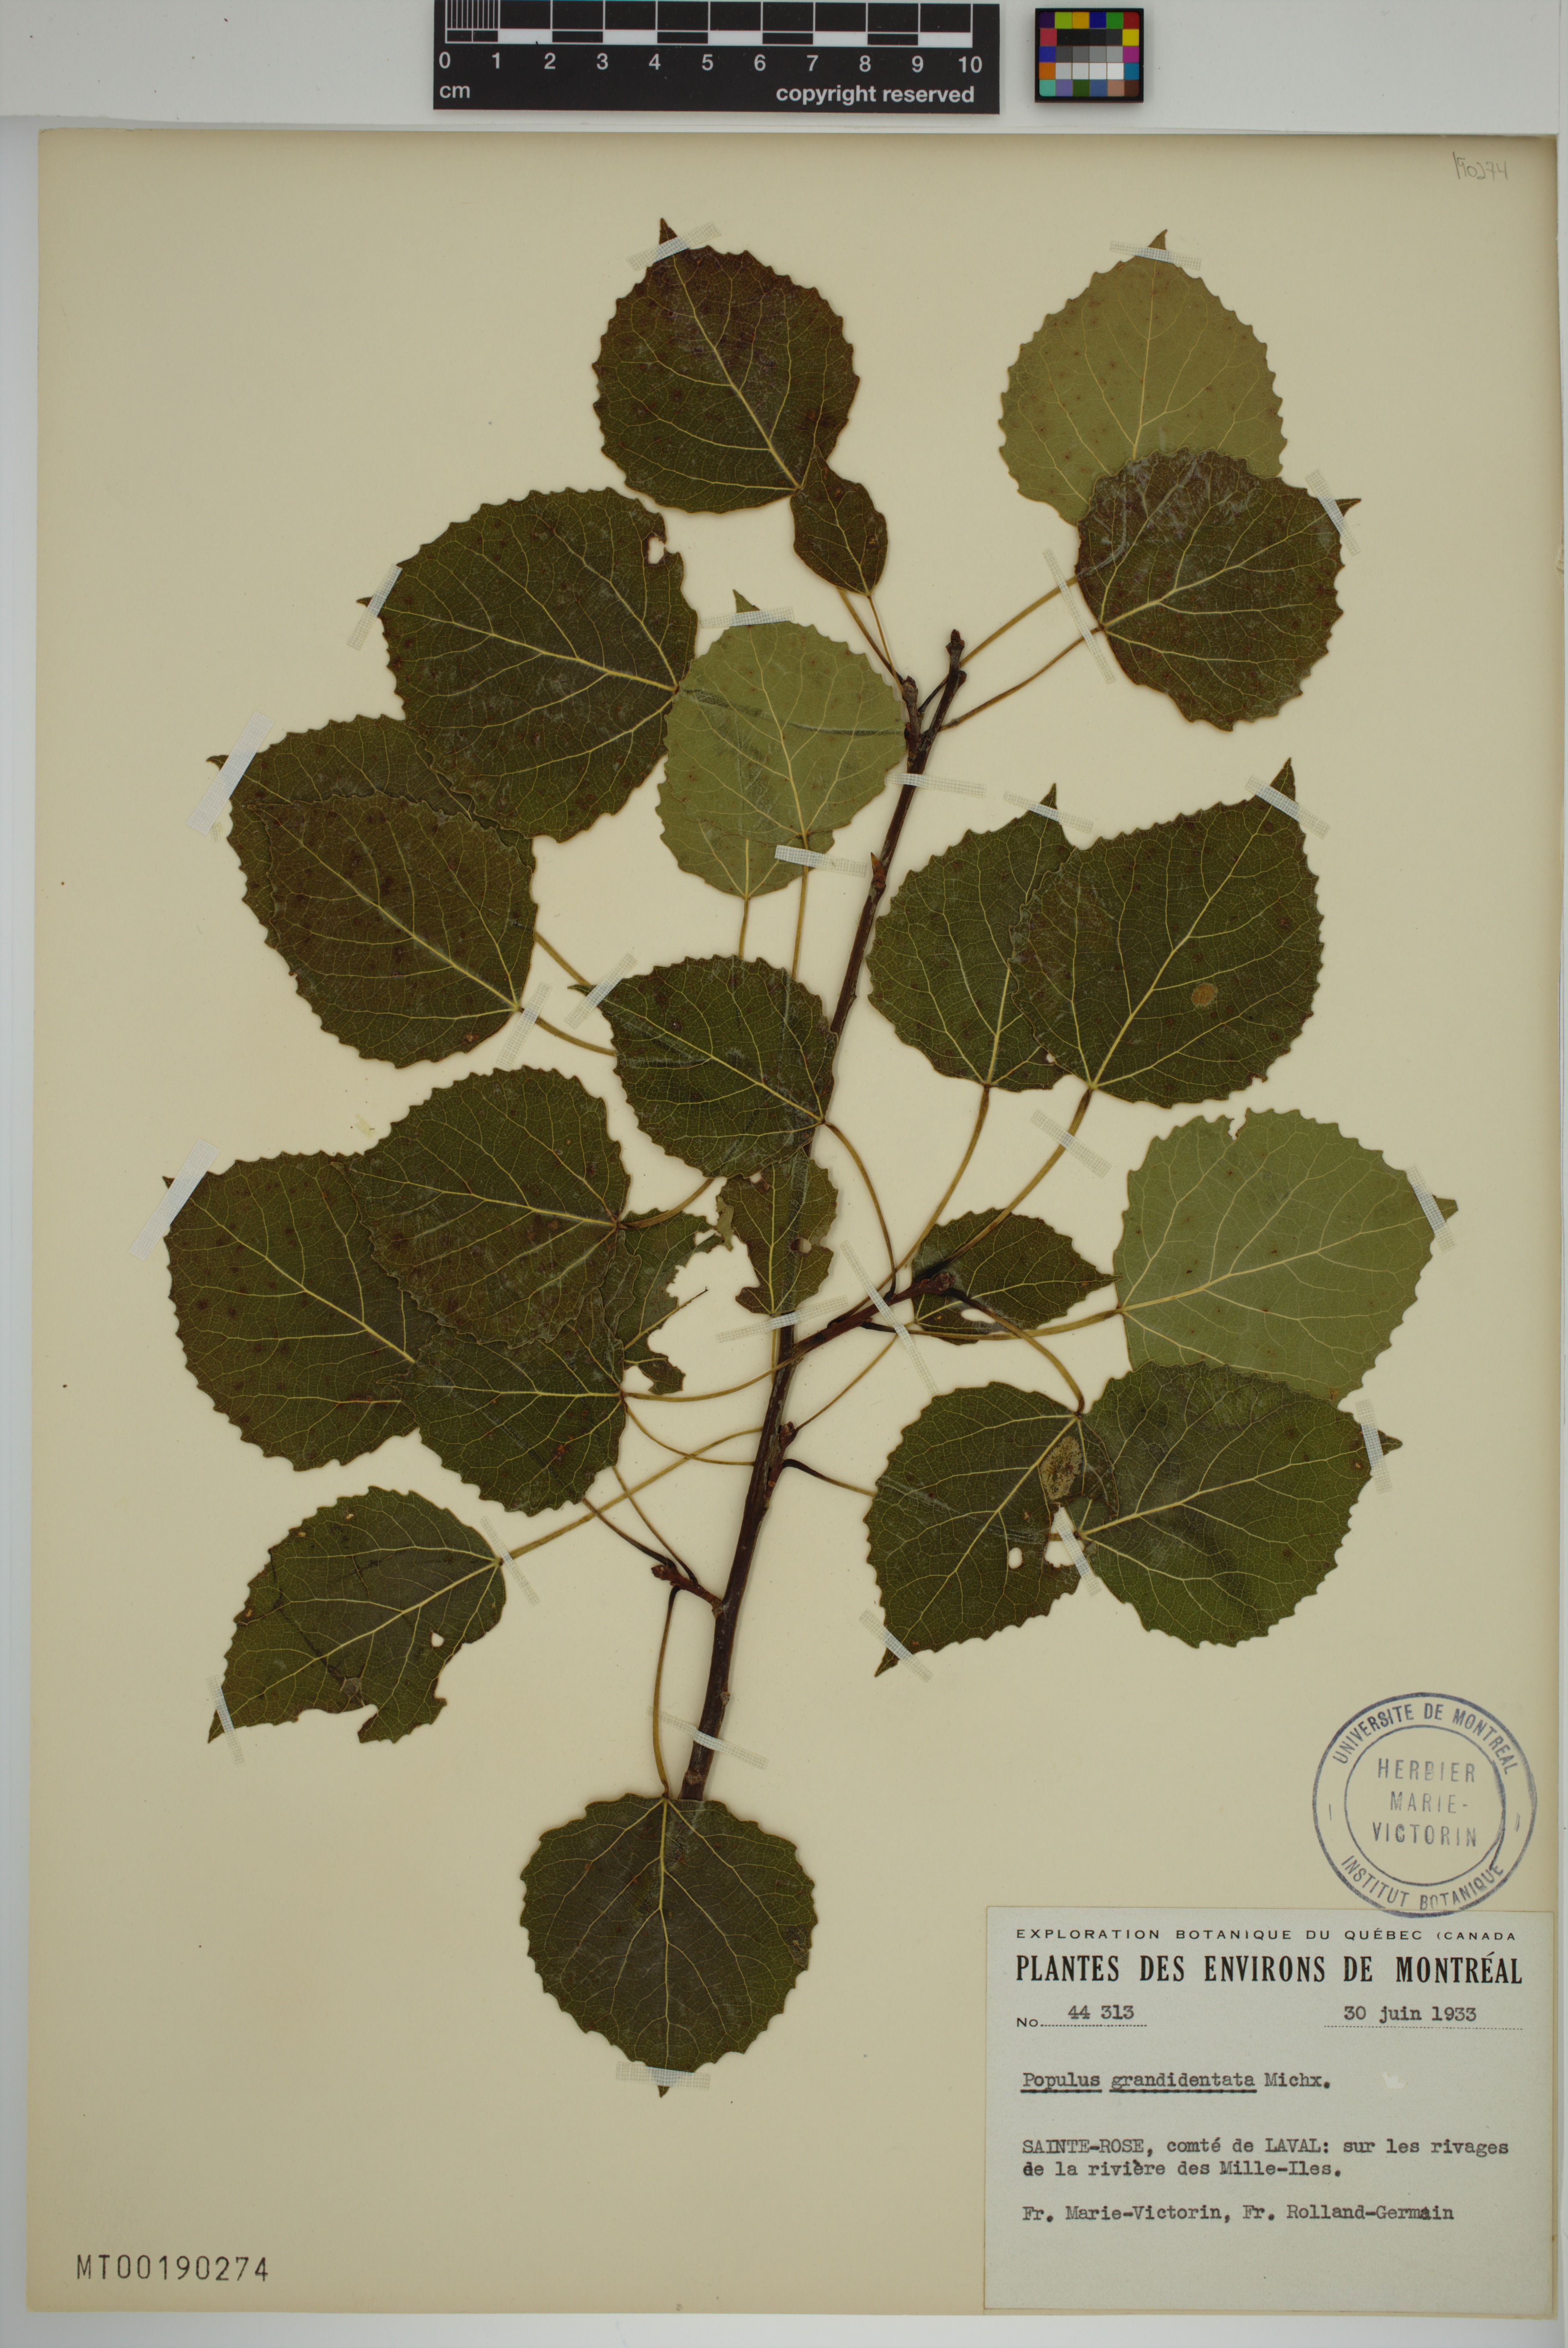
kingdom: Plantae
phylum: Tracheophyta
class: Magnoliopsida
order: Malpighiales
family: Salicaceae
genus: Populus
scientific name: Populus grandidentata
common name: Bigtooth aspen
